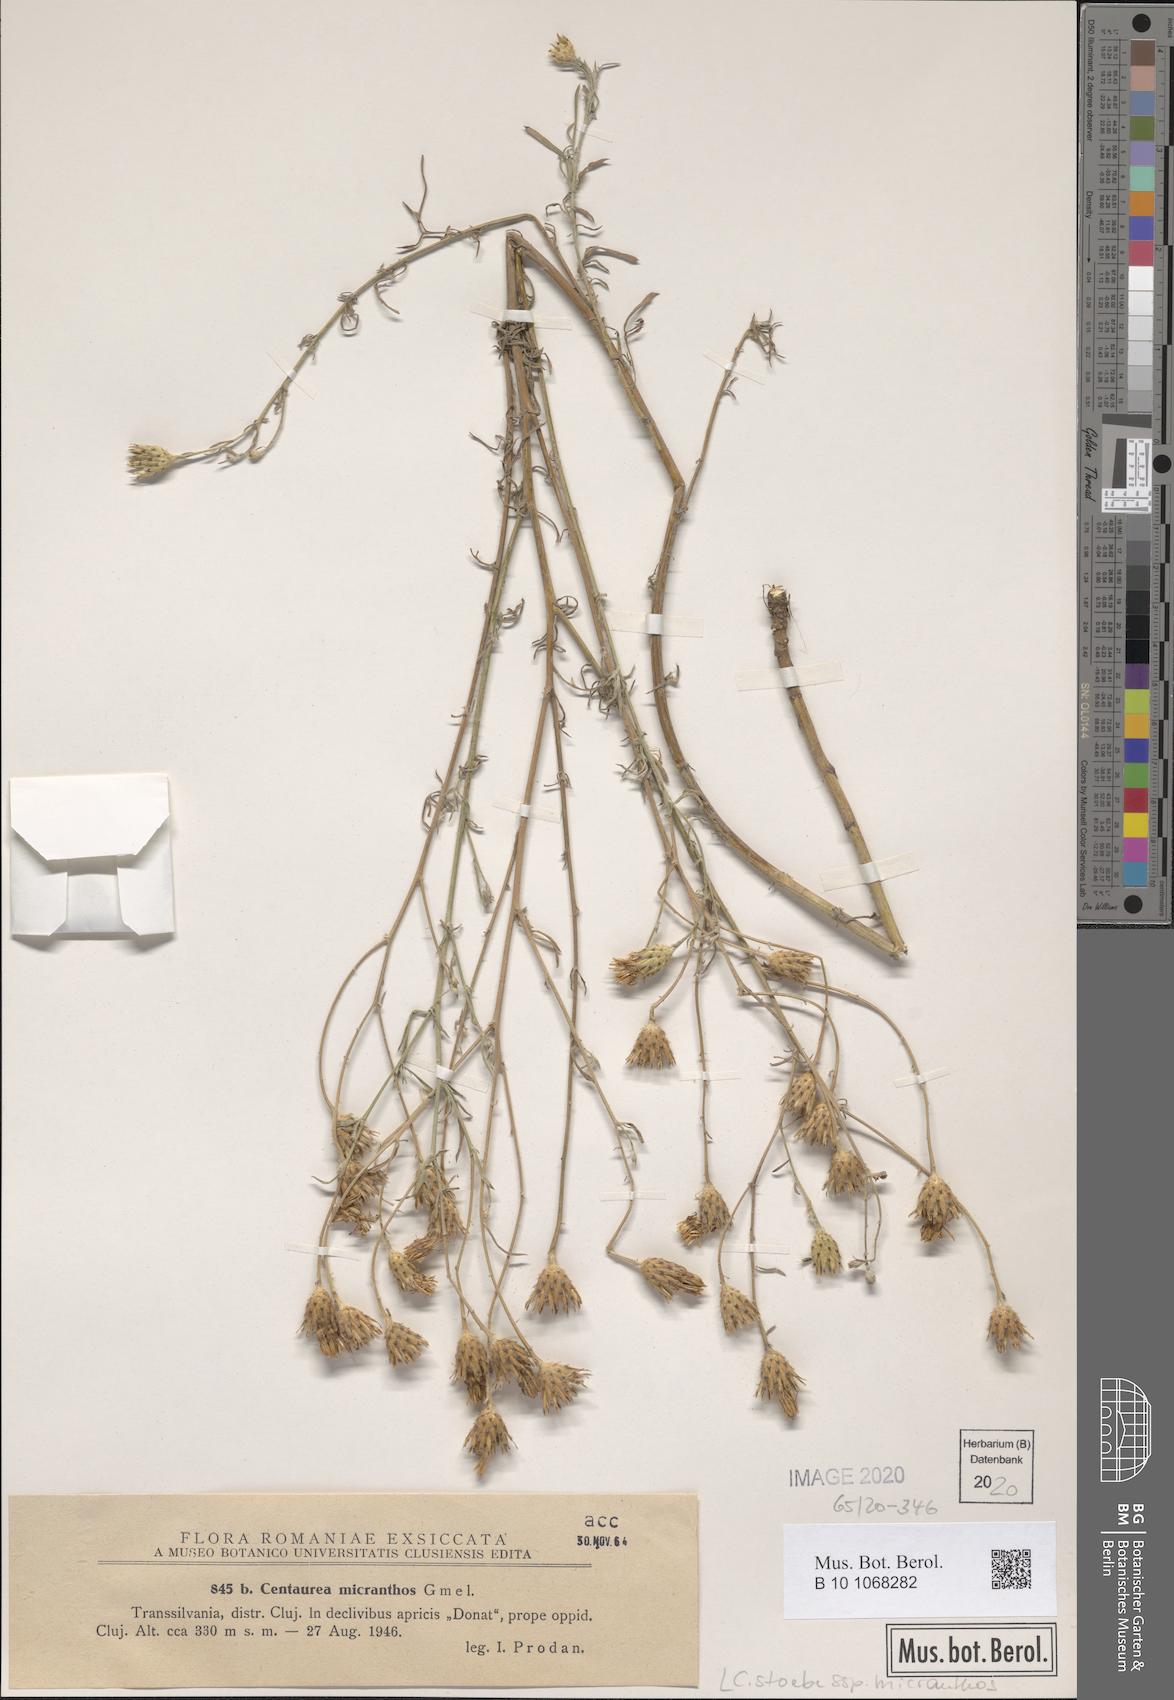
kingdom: Plantae
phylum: Tracheophyta
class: Magnoliopsida
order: Asterales
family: Asteraceae
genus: Centaurea
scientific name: Centaurea australis
